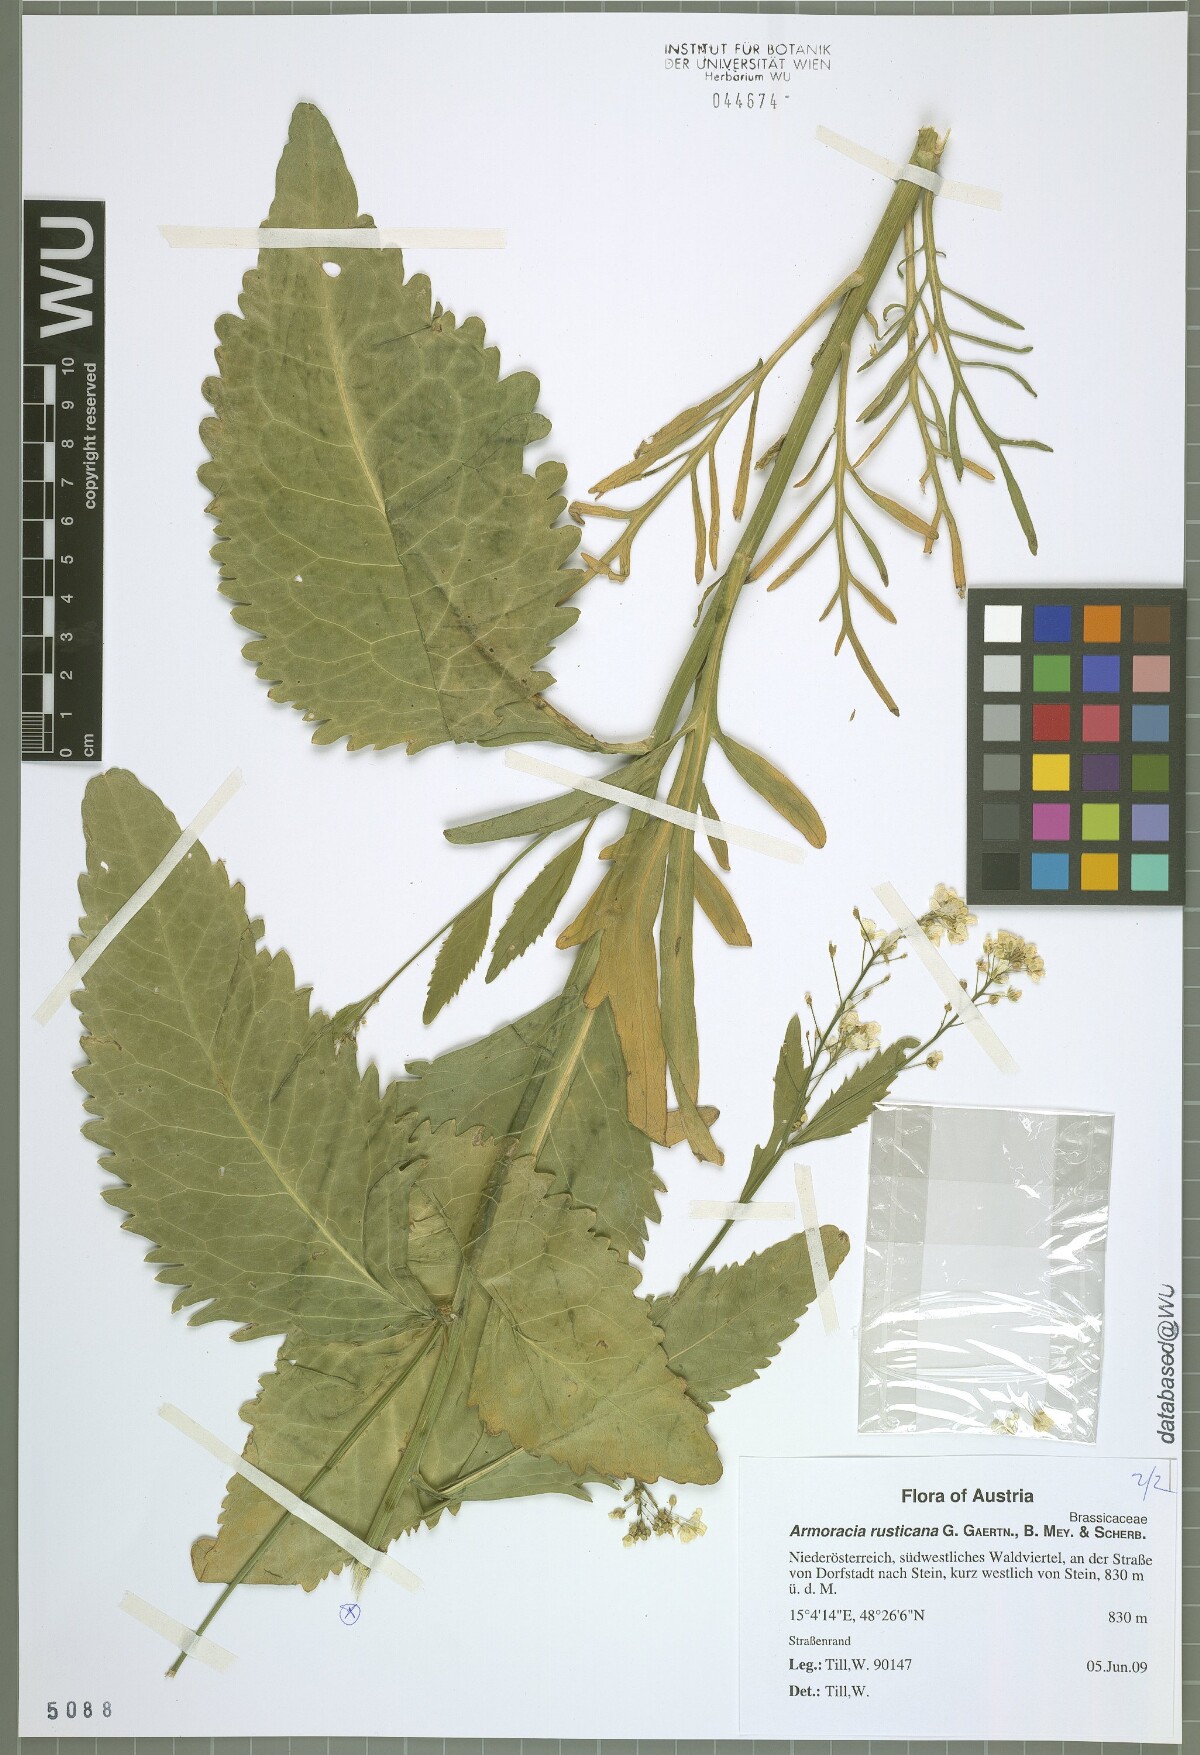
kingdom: Plantae
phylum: Tracheophyta
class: Magnoliopsida
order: Brassicales
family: Brassicaceae
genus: Armoracia
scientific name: Armoracia rusticana
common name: Horseradish
